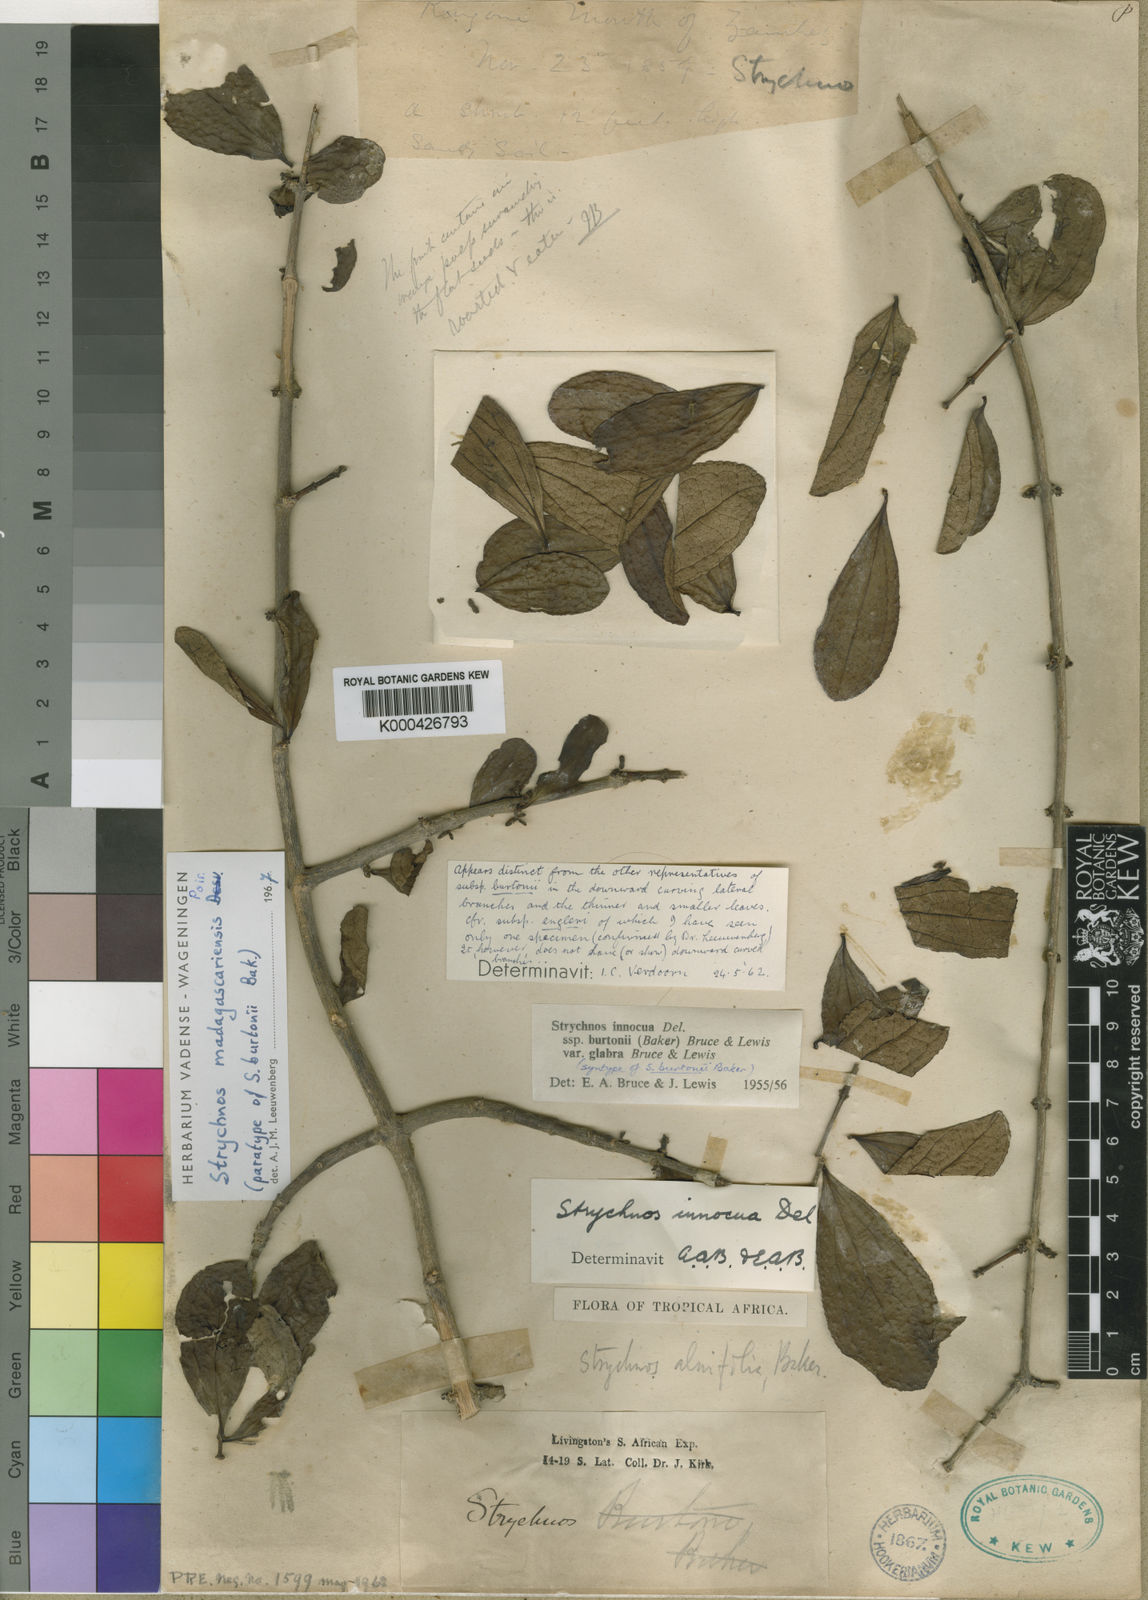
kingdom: Plantae
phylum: Tracheophyta
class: Magnoliopsida
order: Gentianales
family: Loganiaceae
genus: Strychnos
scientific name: Strychnos madagascariensis
